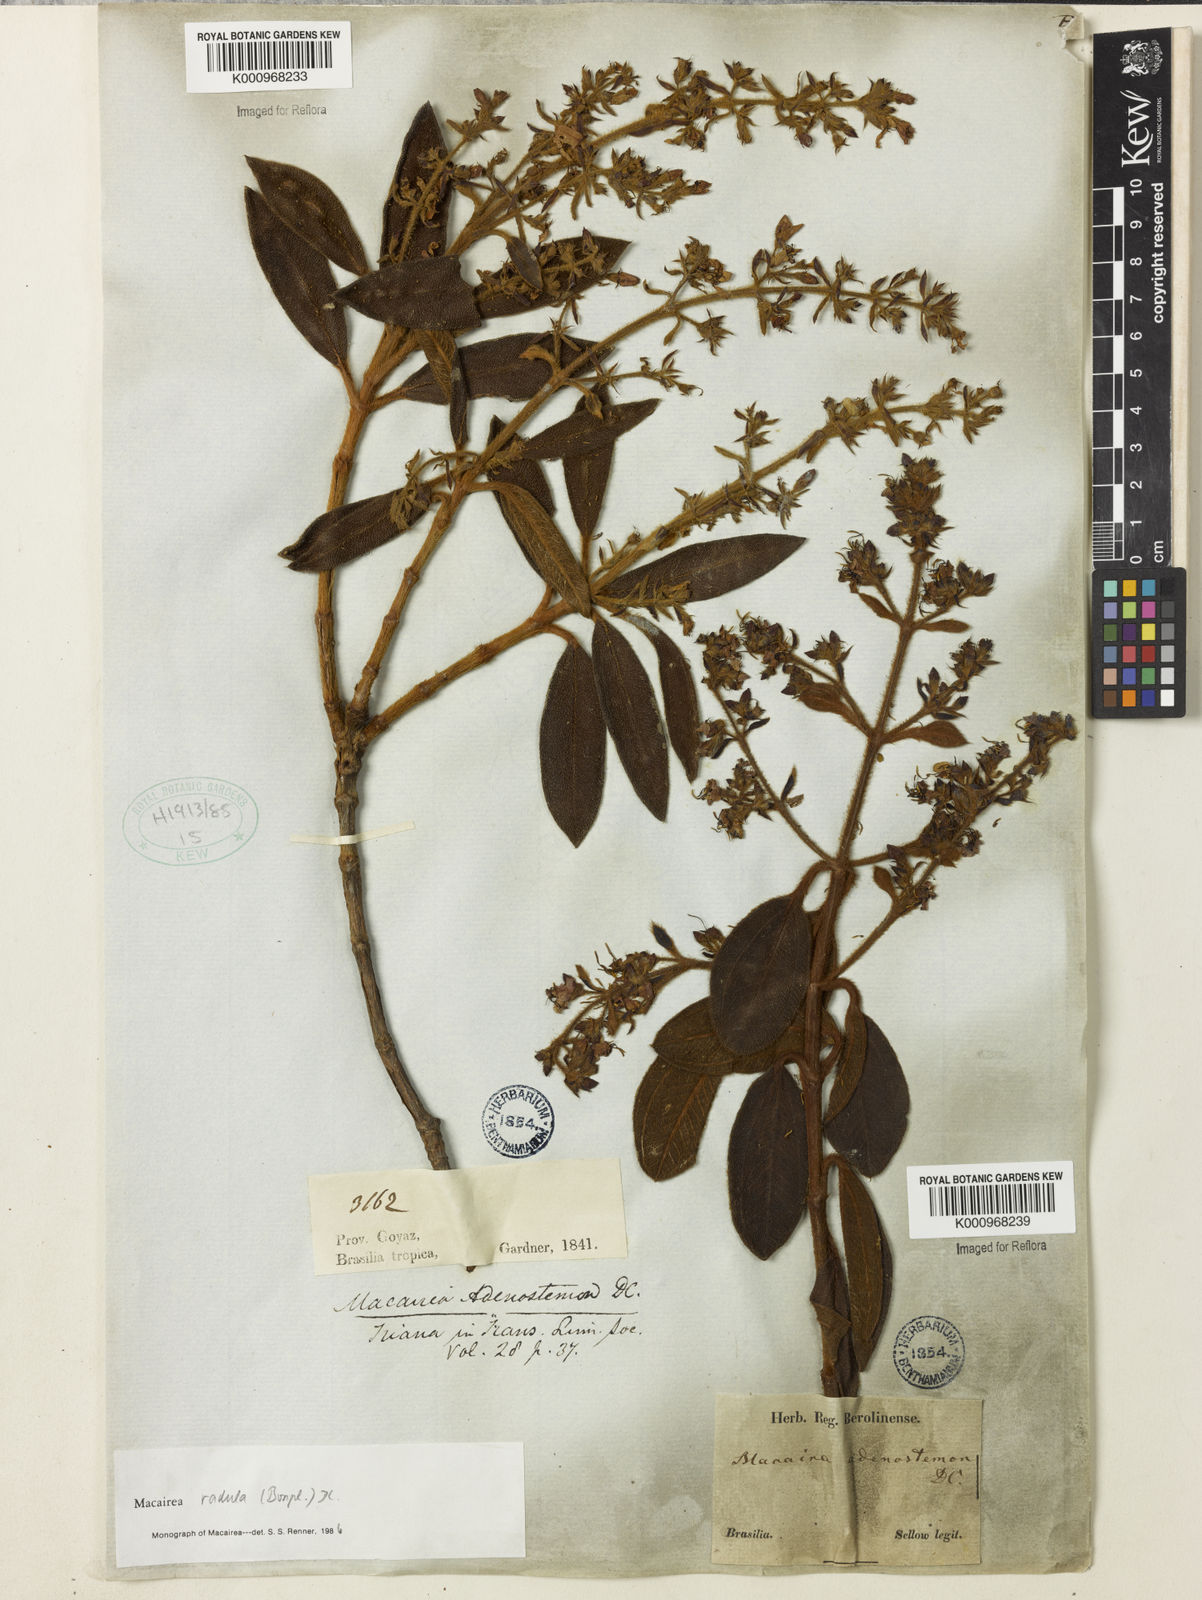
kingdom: Plantae
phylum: Tracheophyta
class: Magnoliopsida
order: Myrtales
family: Melastomataceae
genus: Macairea
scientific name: Macairea radula
